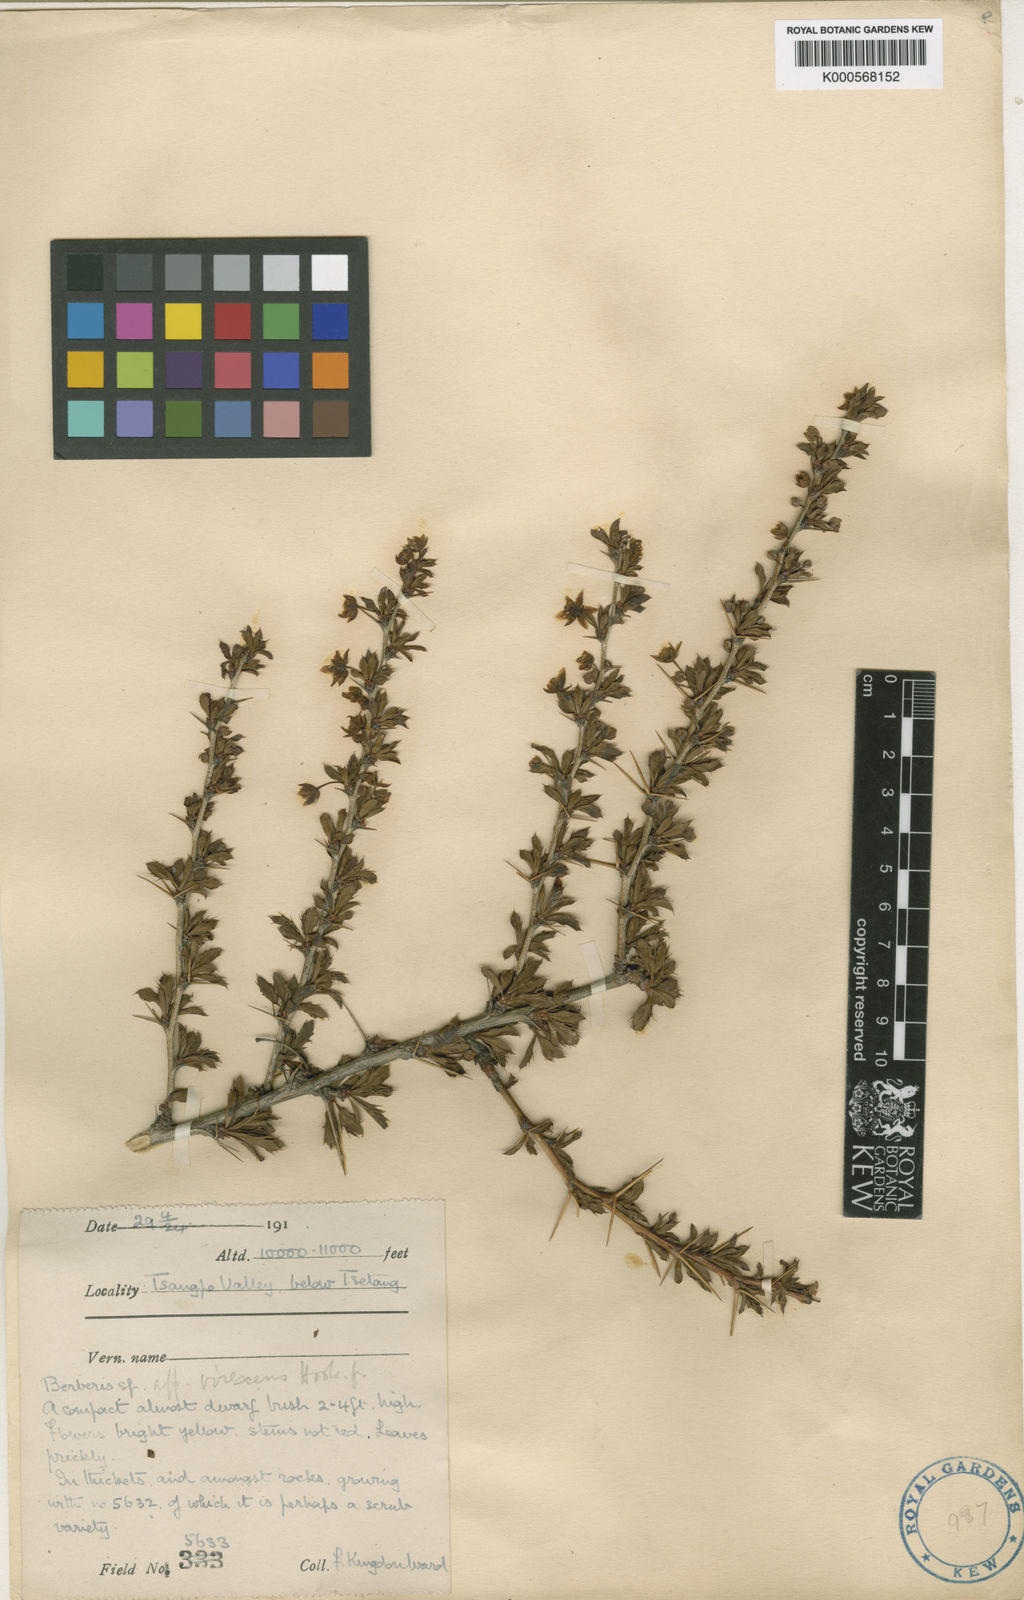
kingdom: Plantae
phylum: Tracheophyta
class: Magnoliopsida
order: Ranunculales
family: Berberidaceae
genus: Berberis
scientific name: Berberis virescens
